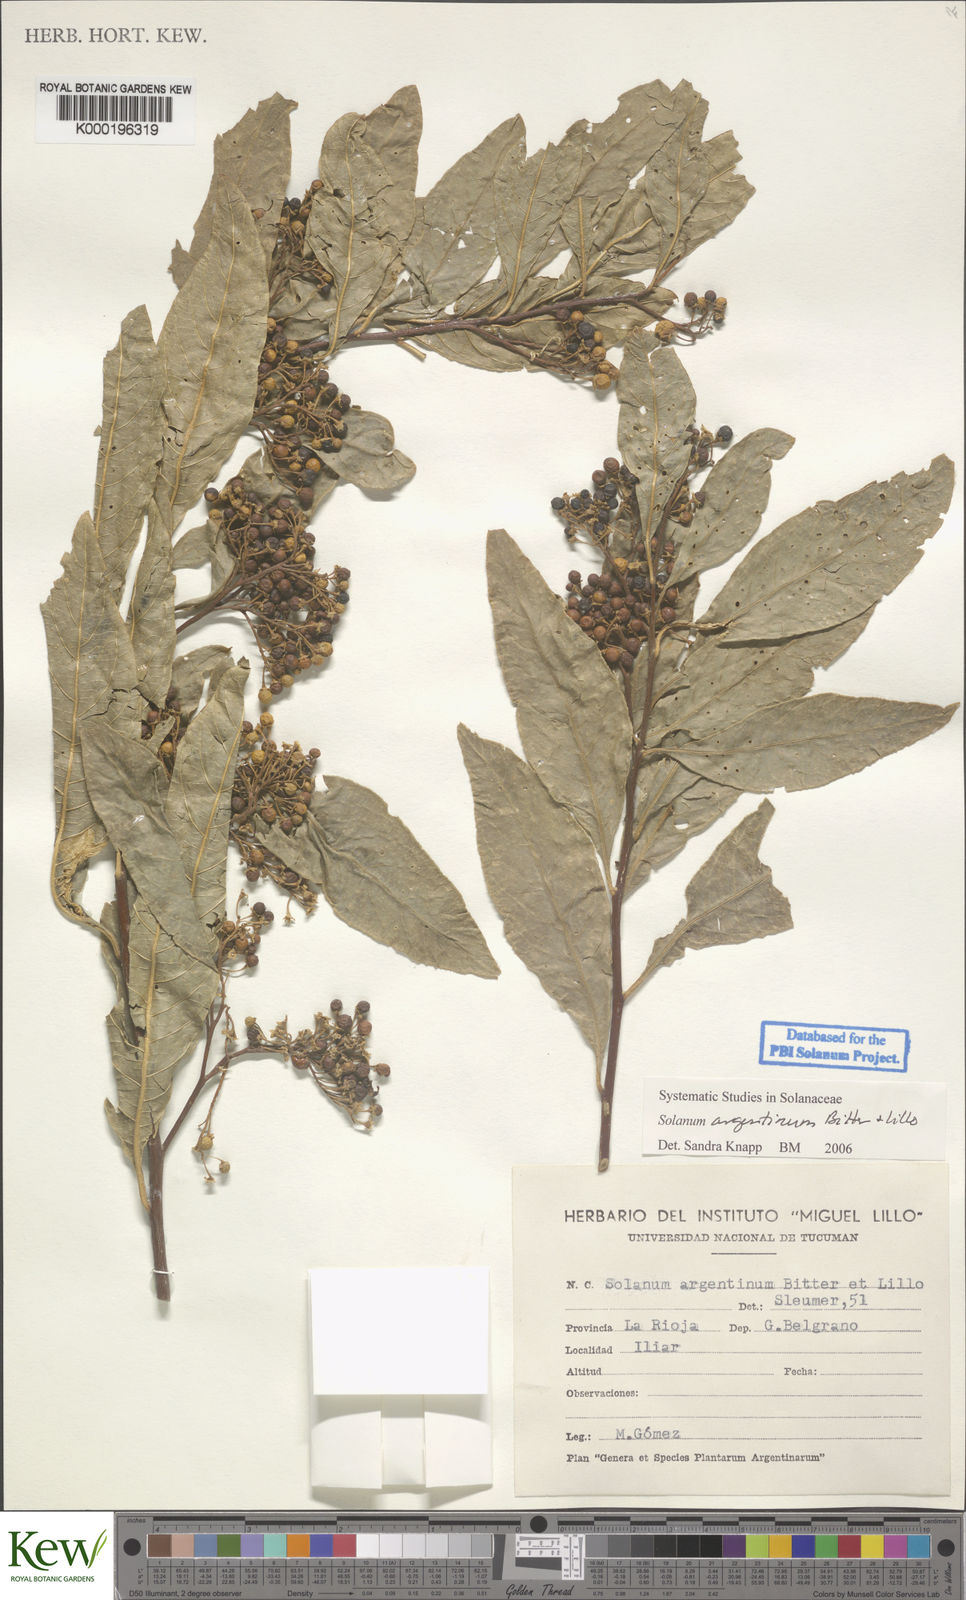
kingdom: Plantae
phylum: Tracheophyta
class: Magnoliopsida
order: Solanales
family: Solanaceae
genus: Solanum
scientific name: Solanum argentinum
